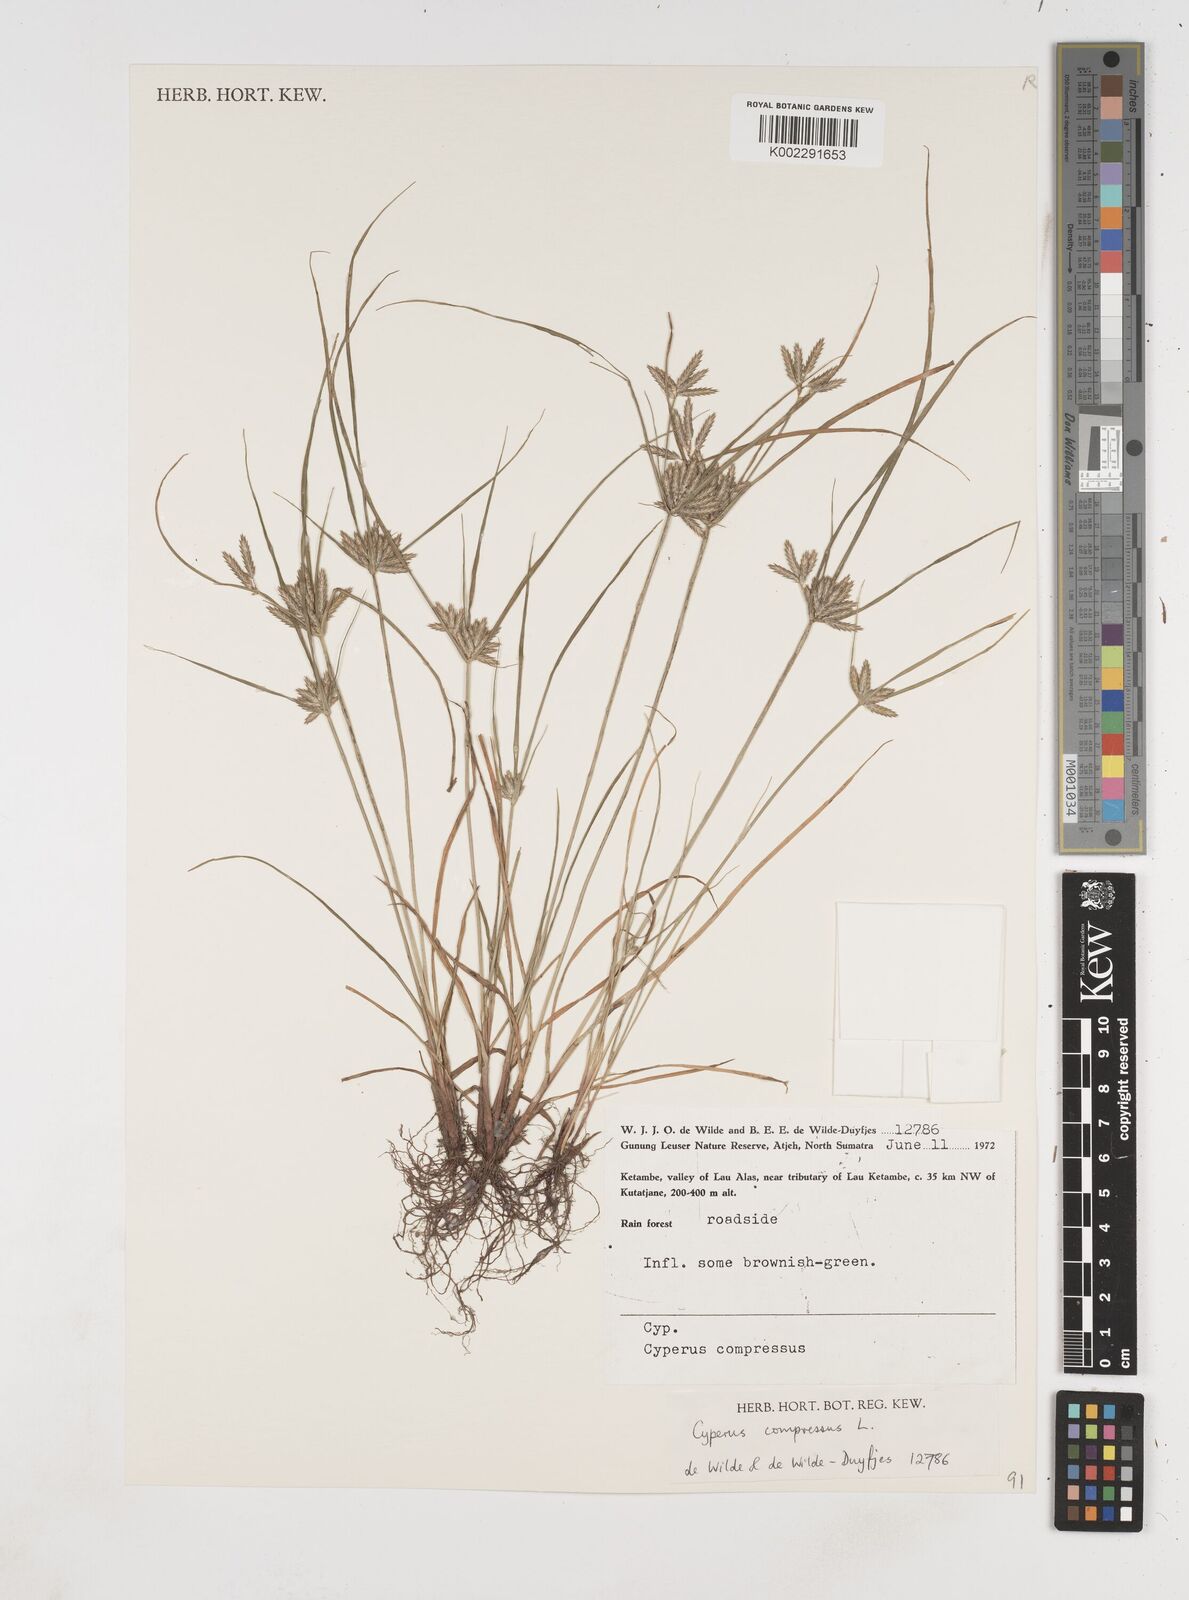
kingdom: Plantae
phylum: Tracheophyta
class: Liliopsida
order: Poales
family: Cyperaceae
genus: Cyperus
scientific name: Cyperus compressus
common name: Poorland flatsedge
